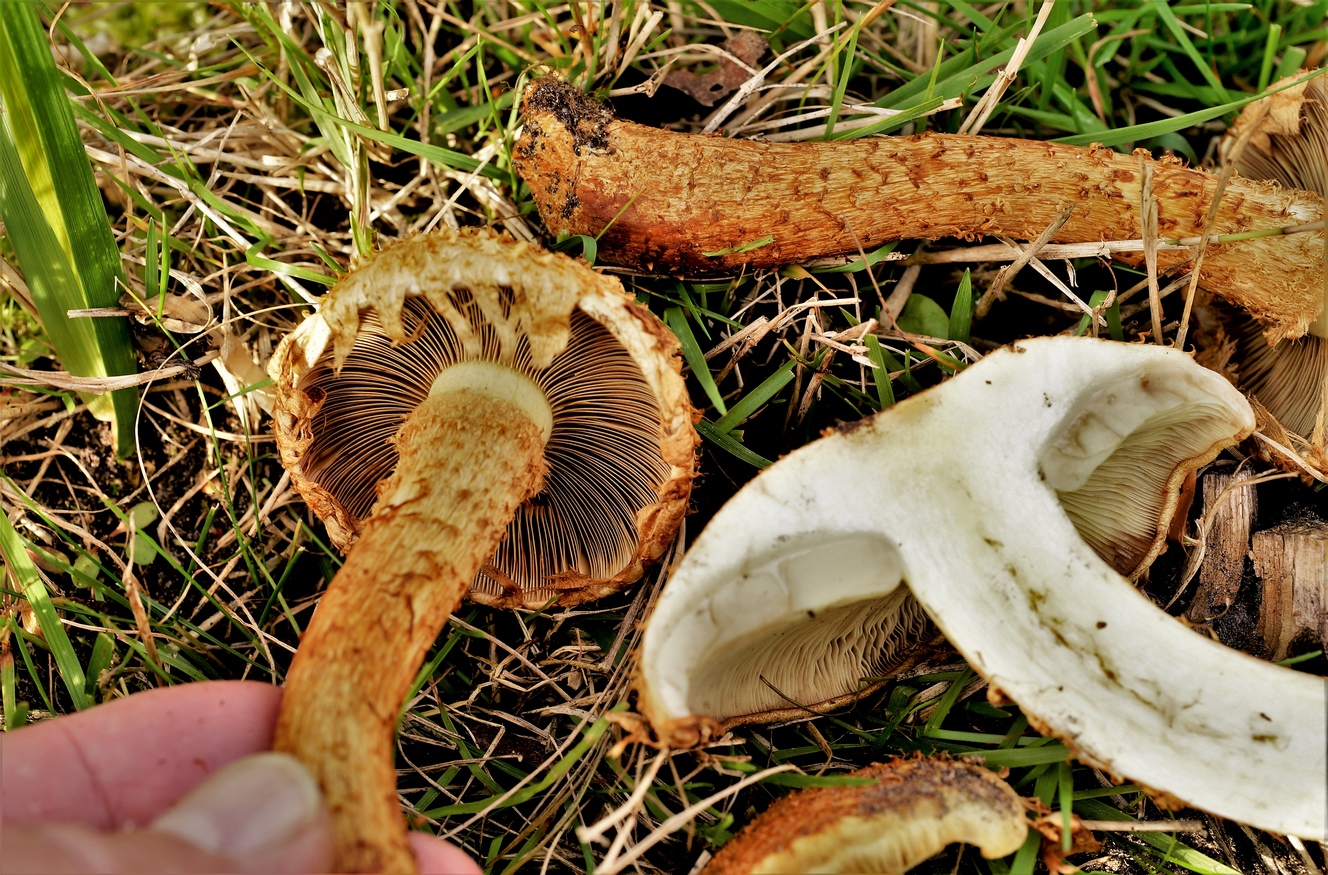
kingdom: Fungi
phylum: Basidiomycota
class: Agaricomycetes
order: Agaricales
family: Strophariaceae
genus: Pholiota
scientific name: Pholiota squarrosa
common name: krumskællet skælhat
